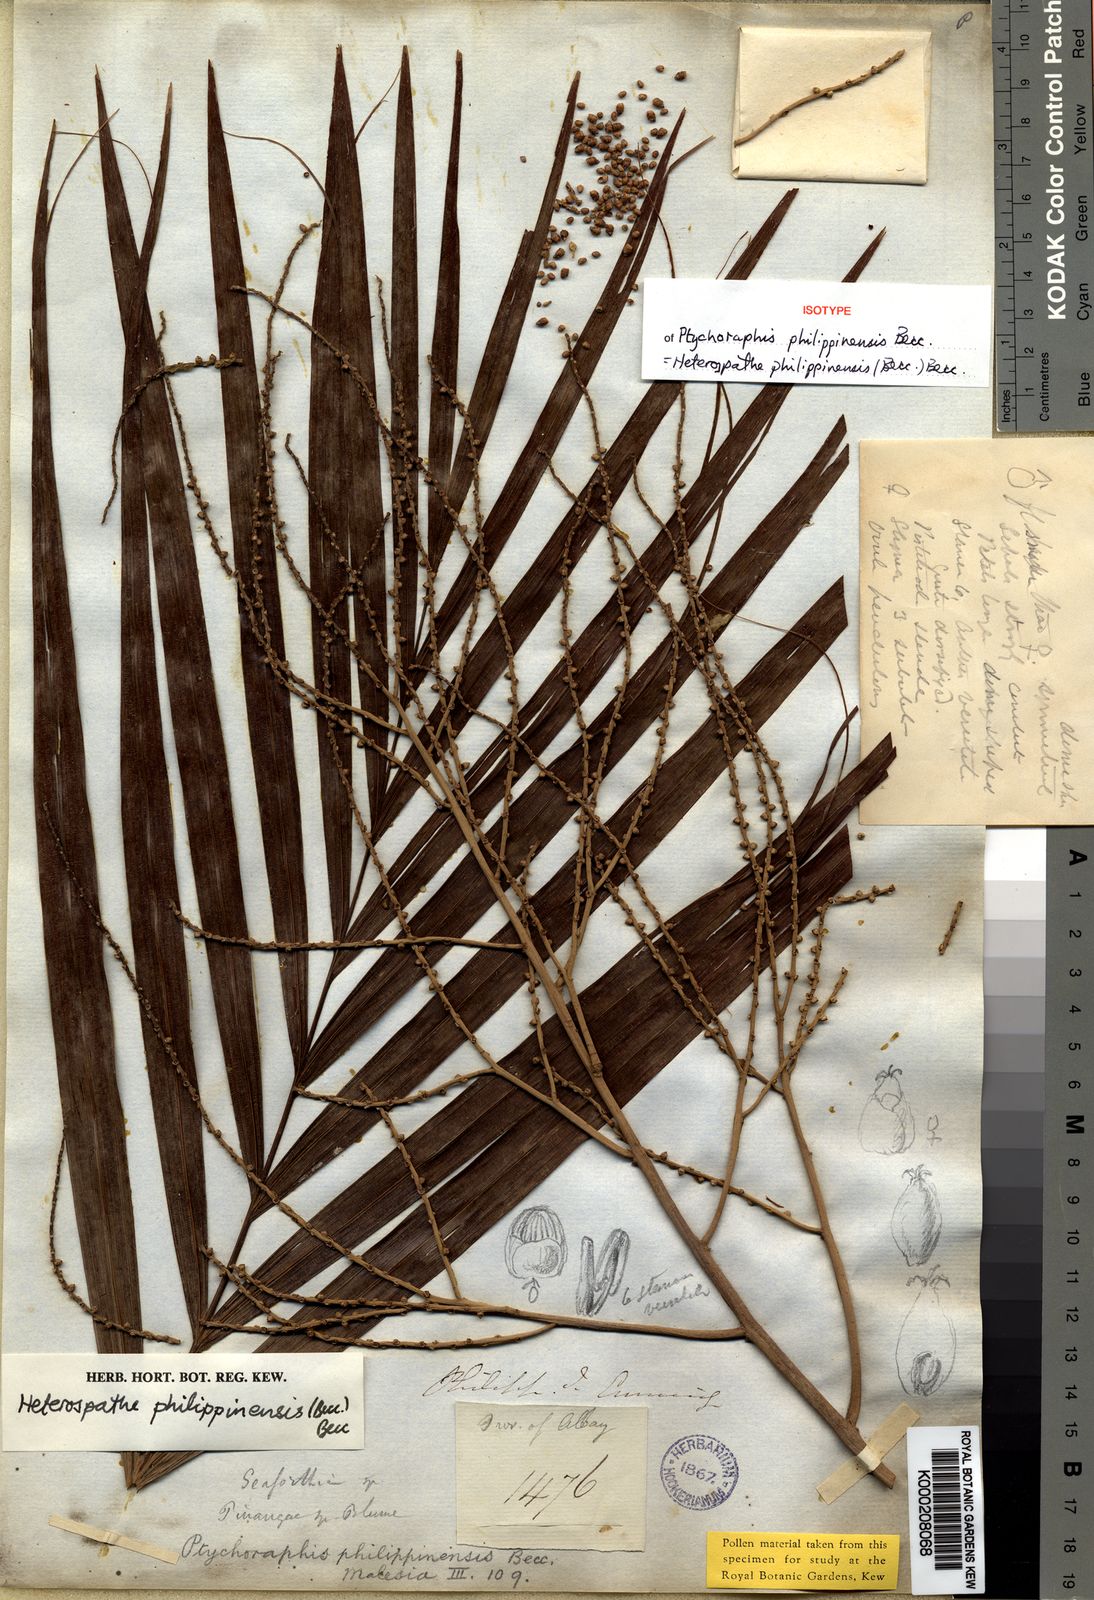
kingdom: Plantae
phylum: Tracheophyta
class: Liliopsida
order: Arecales
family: Arecaceae
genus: Heterospathe
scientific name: Heterospathe philippinensis
